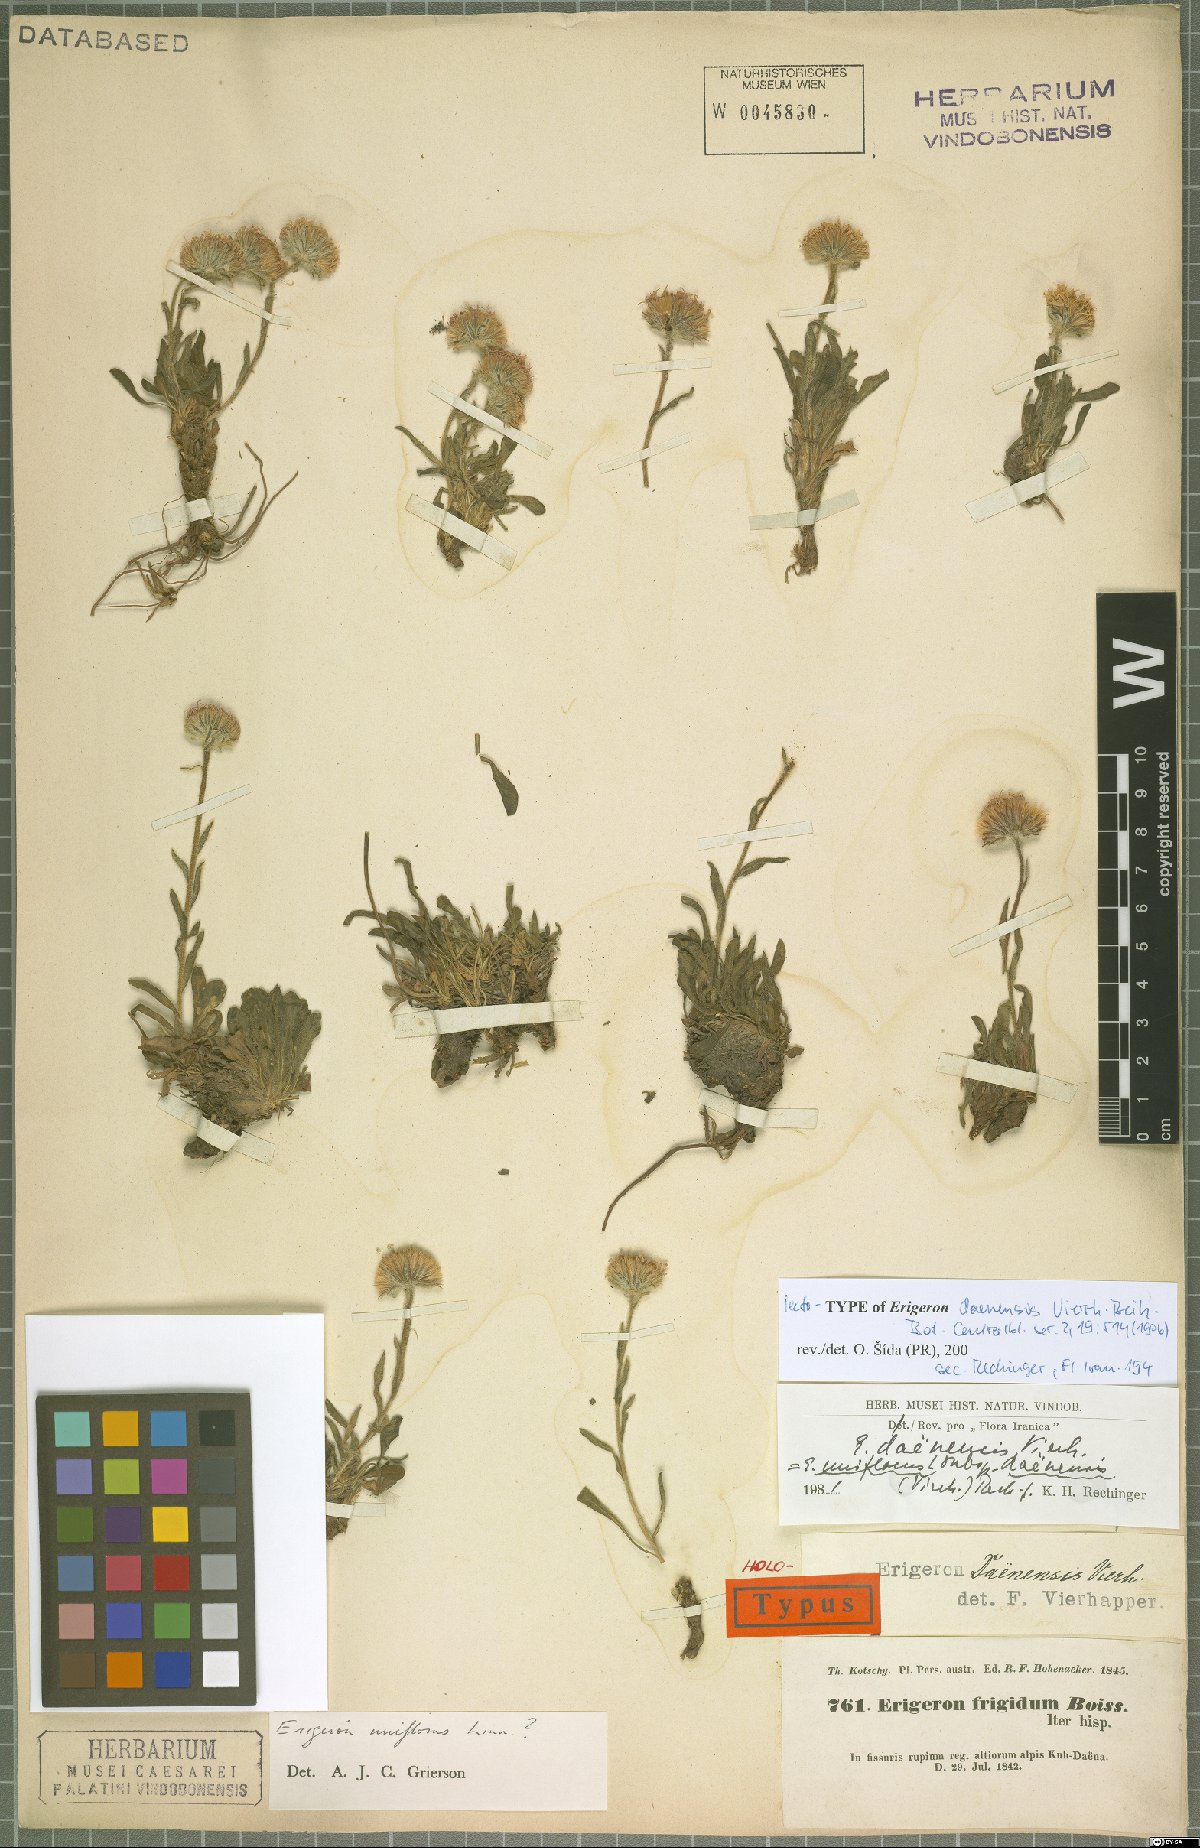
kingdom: Plantae
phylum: Tracheophyta
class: Magnoliopsida
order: Asterales
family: Asteraceae
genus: Erigeron
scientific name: Erigeron daenensis
